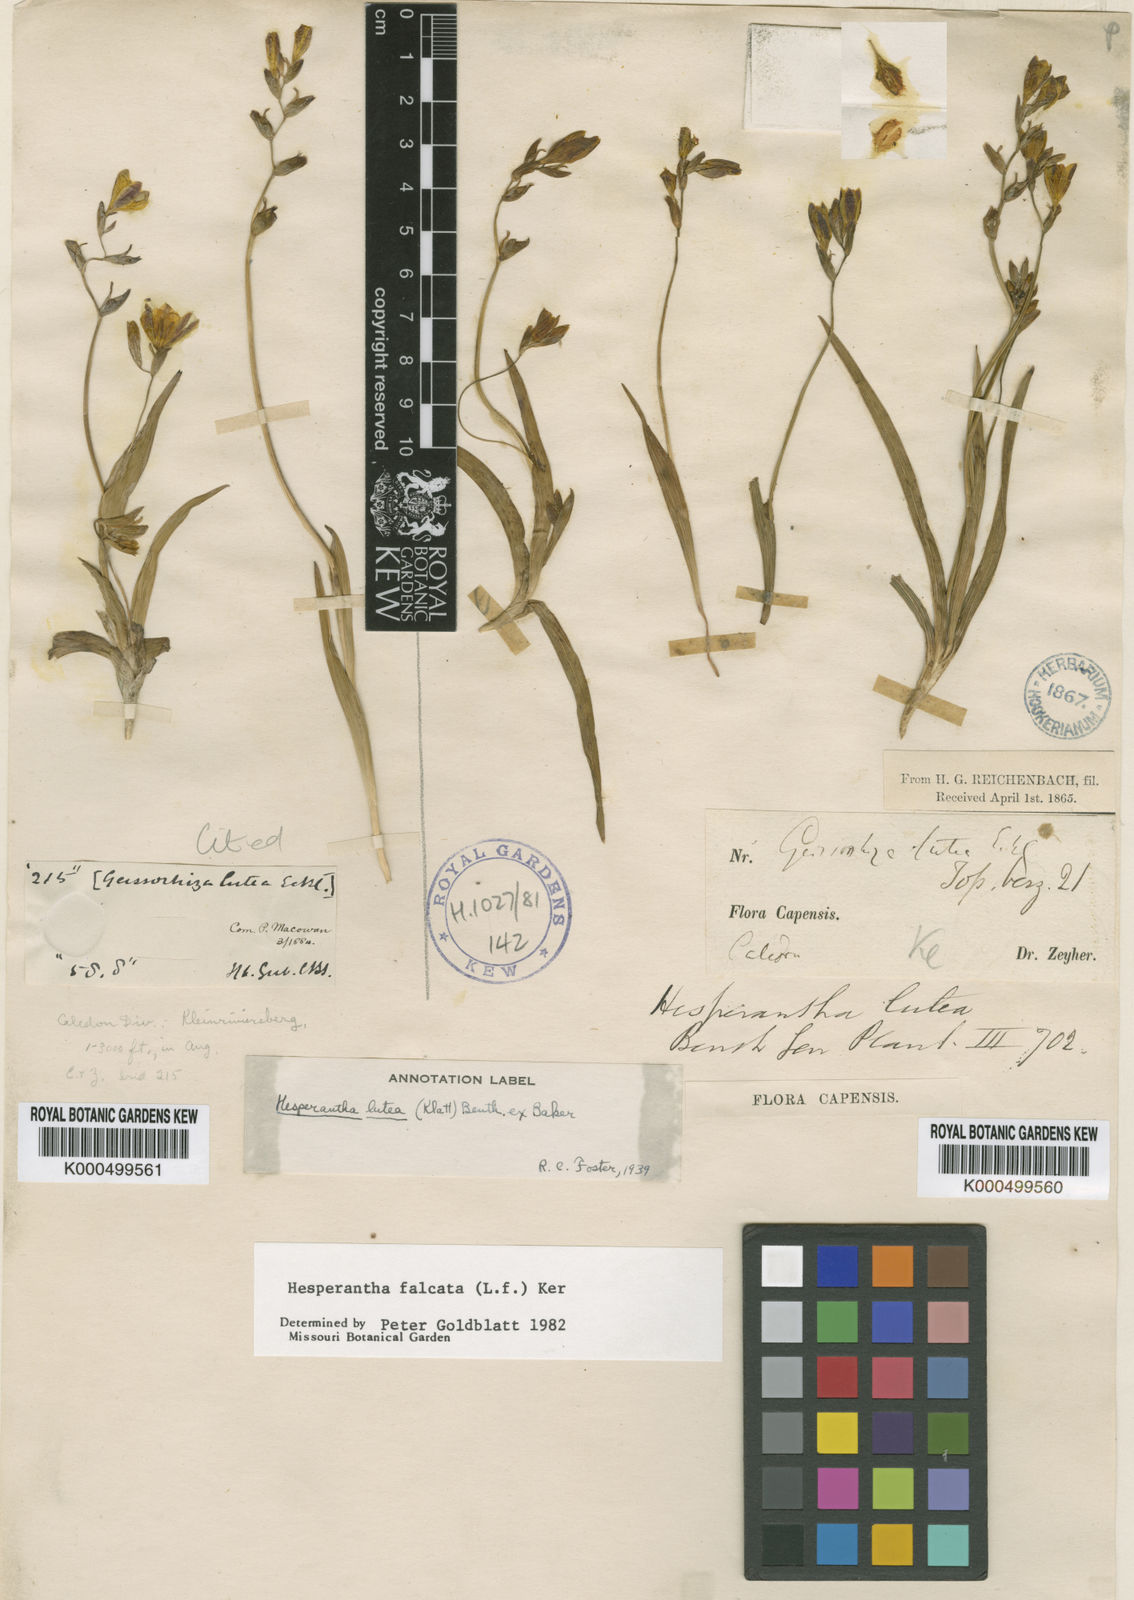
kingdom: Plantae
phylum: Tracheophyta
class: Liliopsida
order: Asparagales
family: Iridaceae
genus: Hesperantha
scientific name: Hesperantha falcata
